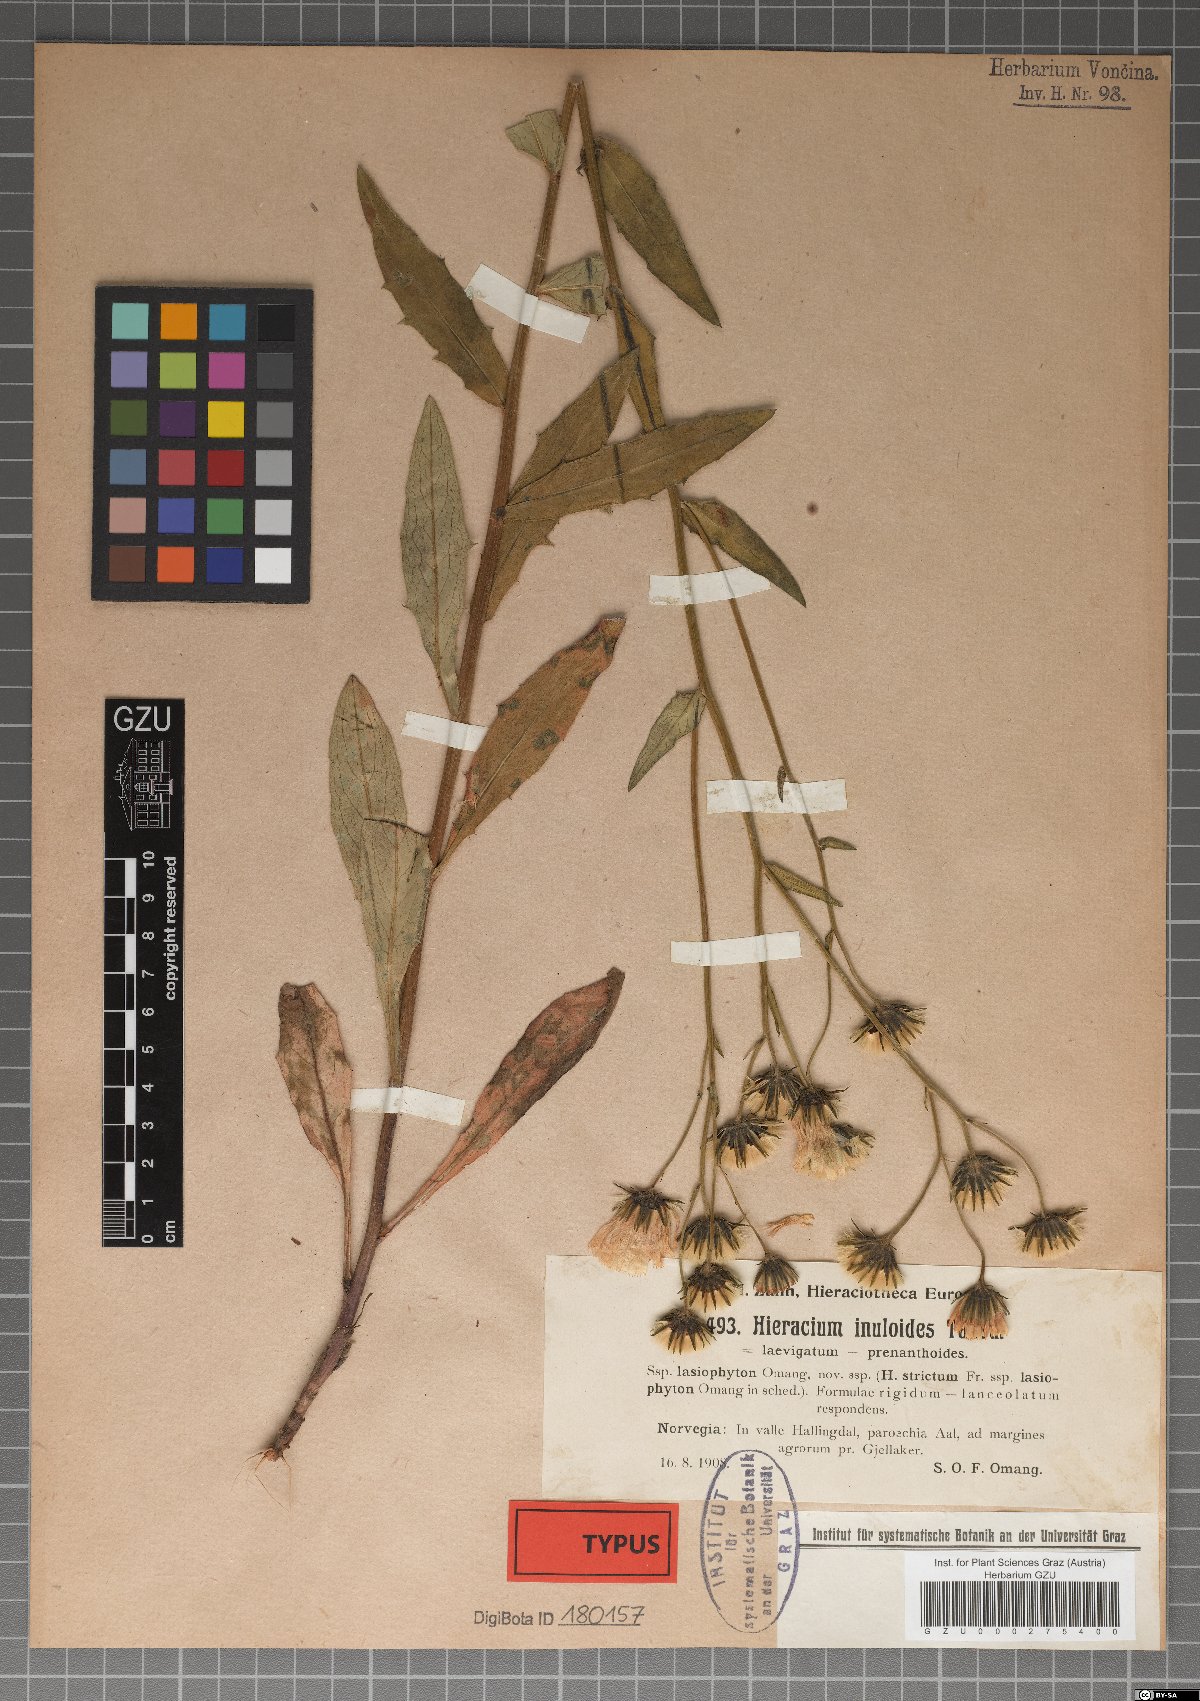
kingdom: Plantae
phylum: Tracheophyta
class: Magnoliopsida
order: Asterales
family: Asteraceae
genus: Hieracium
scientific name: Hieracium lasiophyton
